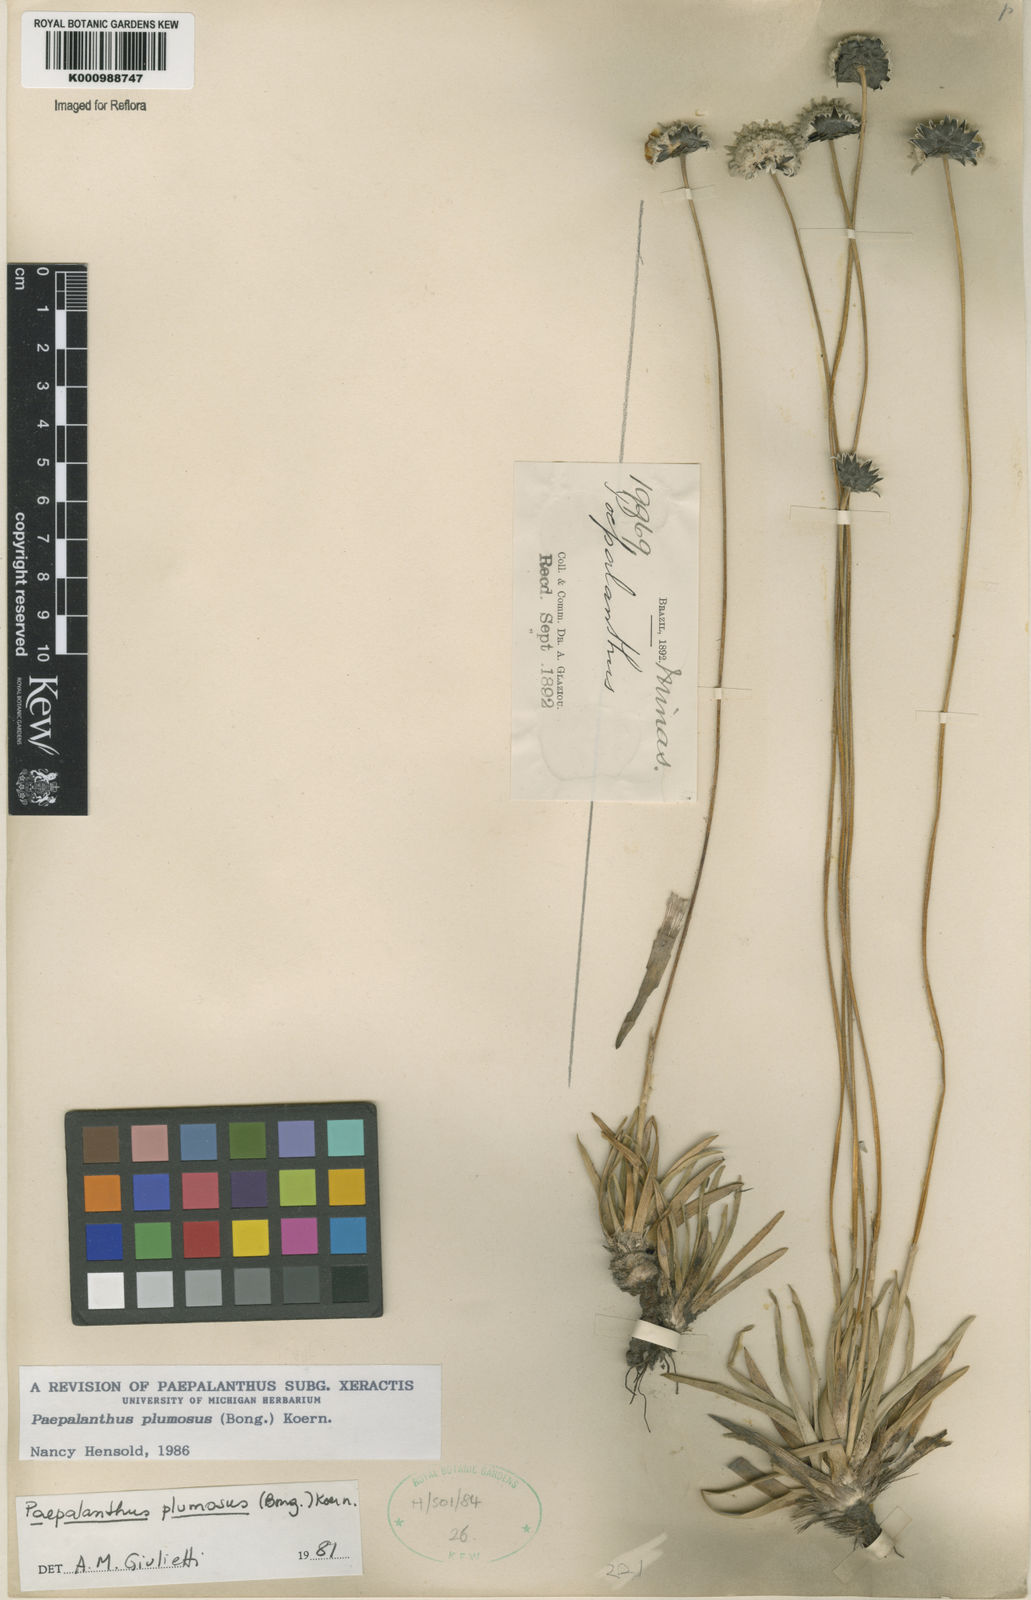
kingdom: Plantae
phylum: Tracheophyta
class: Liliopsida
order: Poales
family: Eriocaulaceae
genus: Paepalanthus
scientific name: Paepalanthus
